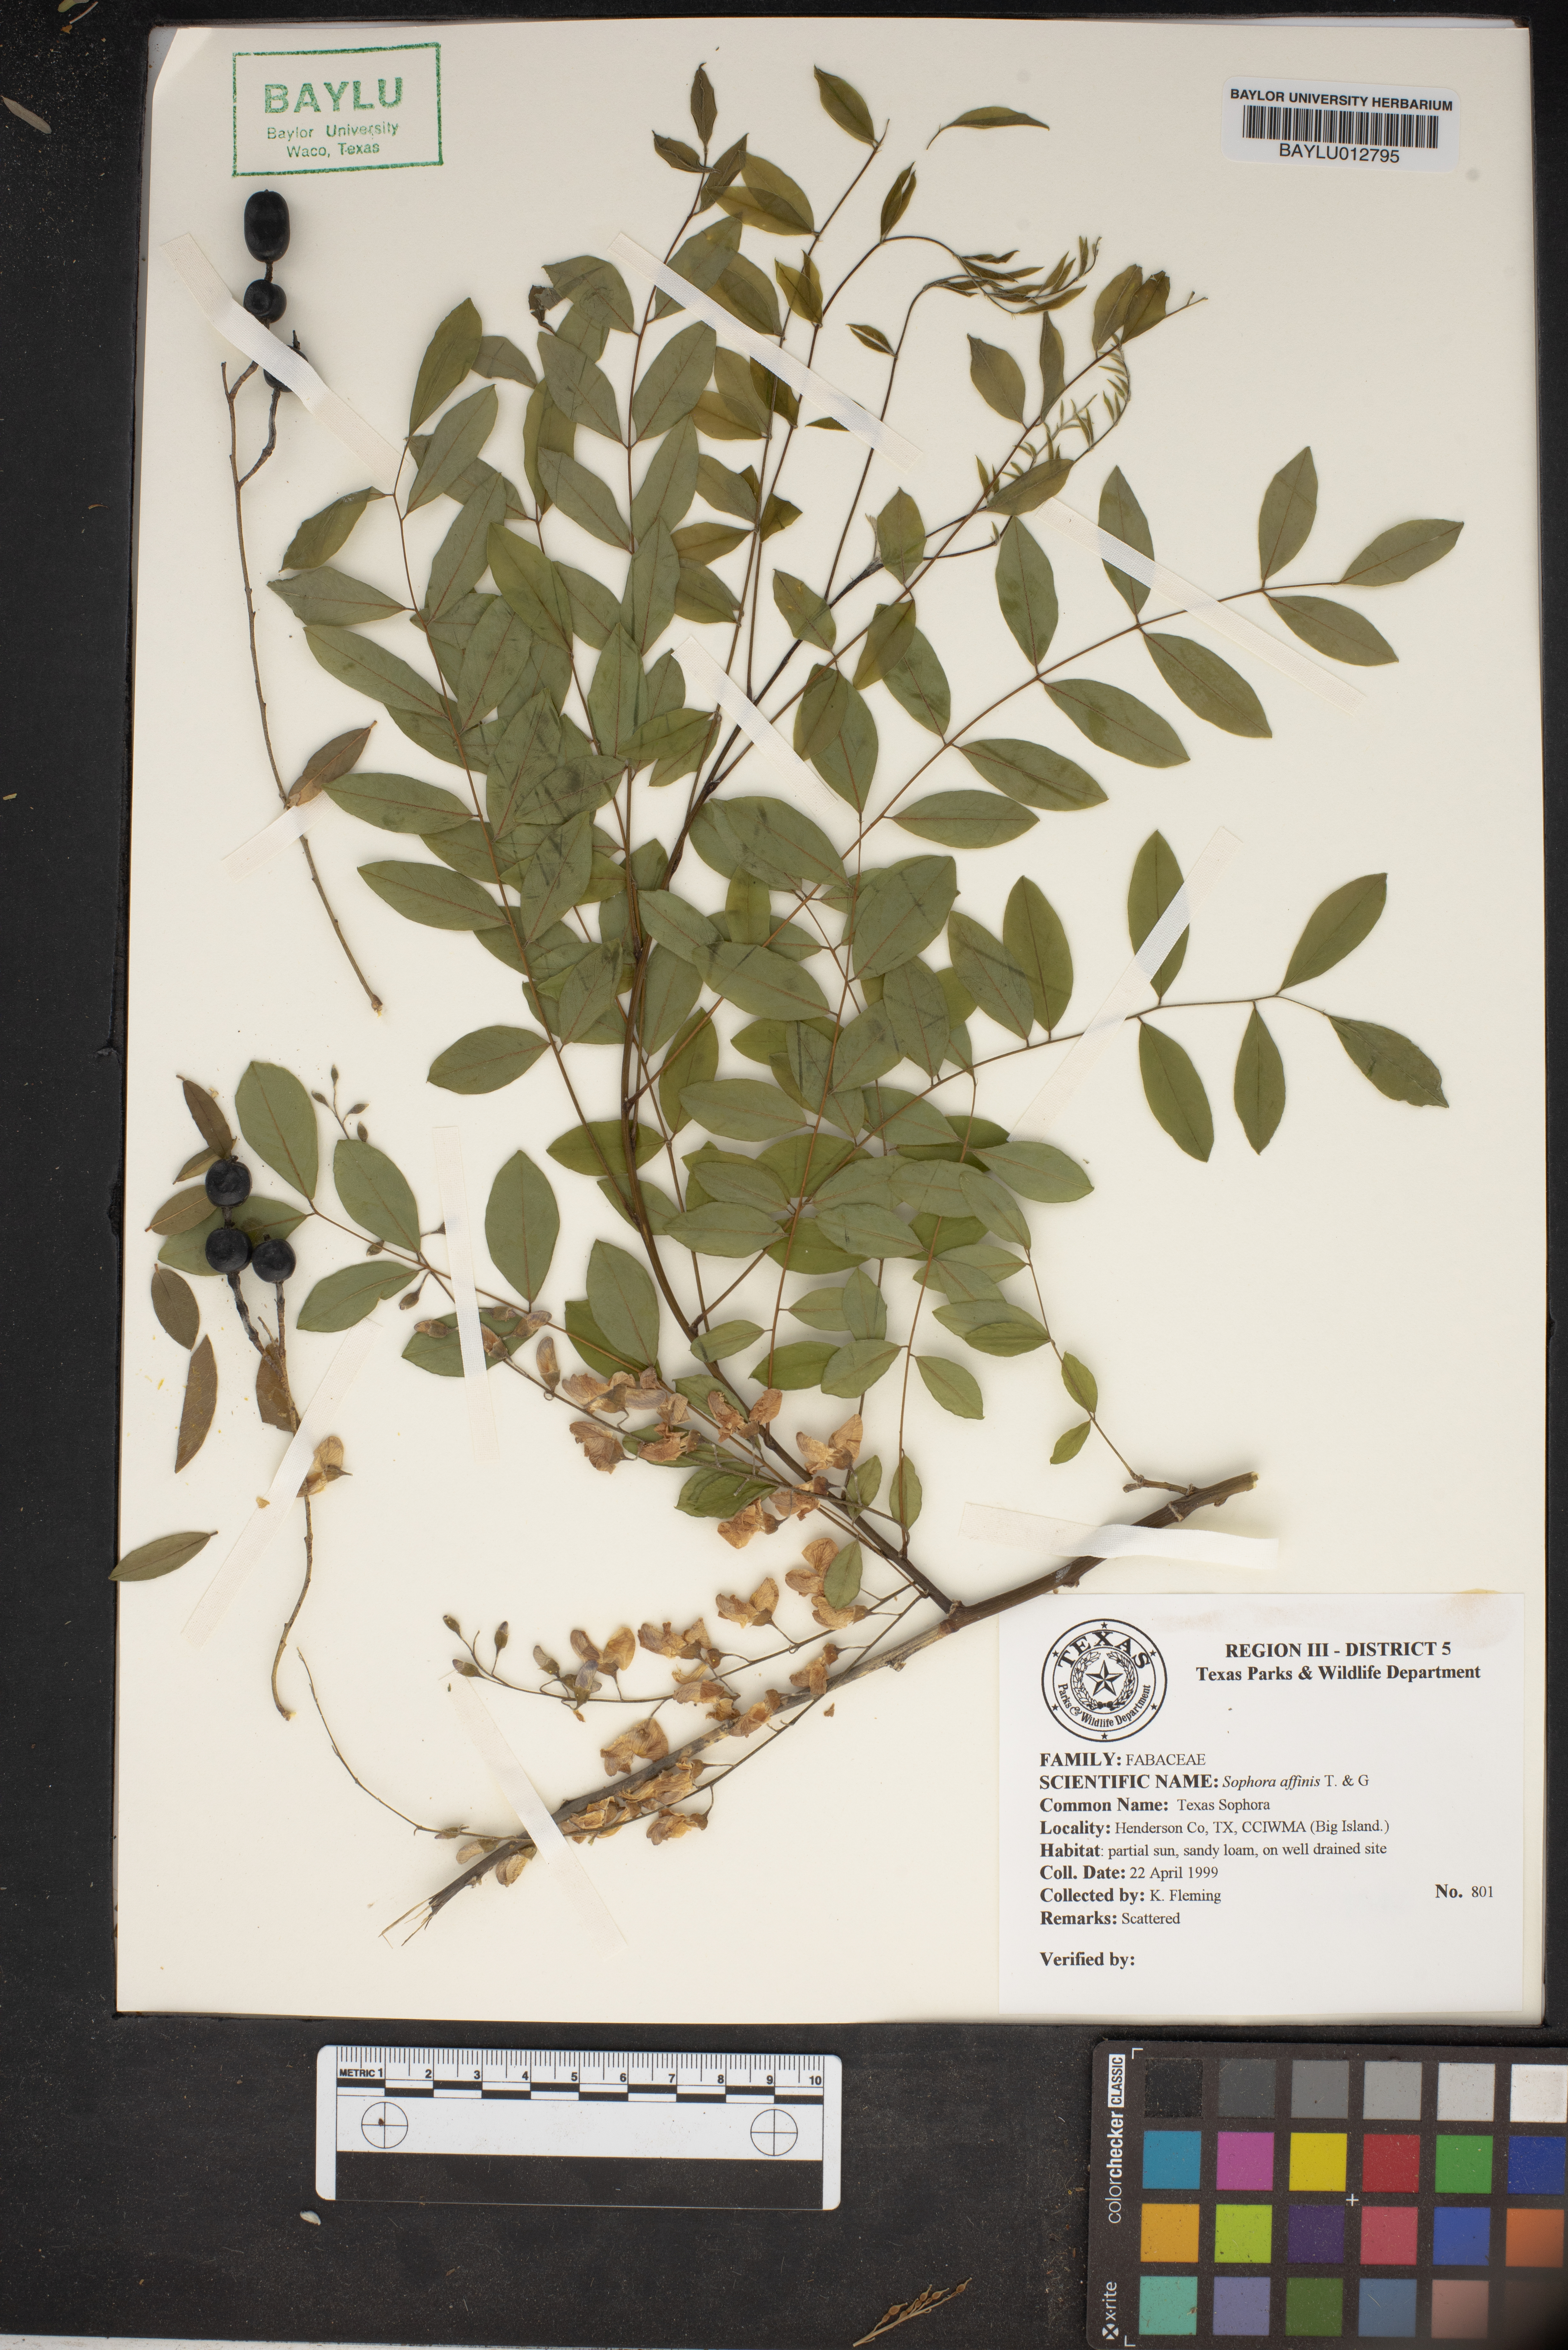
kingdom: Plantae
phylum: Tracheophyta
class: Magnoliopsida
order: Fabales
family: Fabaceae
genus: Styphnolobium
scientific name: Styphnolobium affine
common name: Texas sophora
